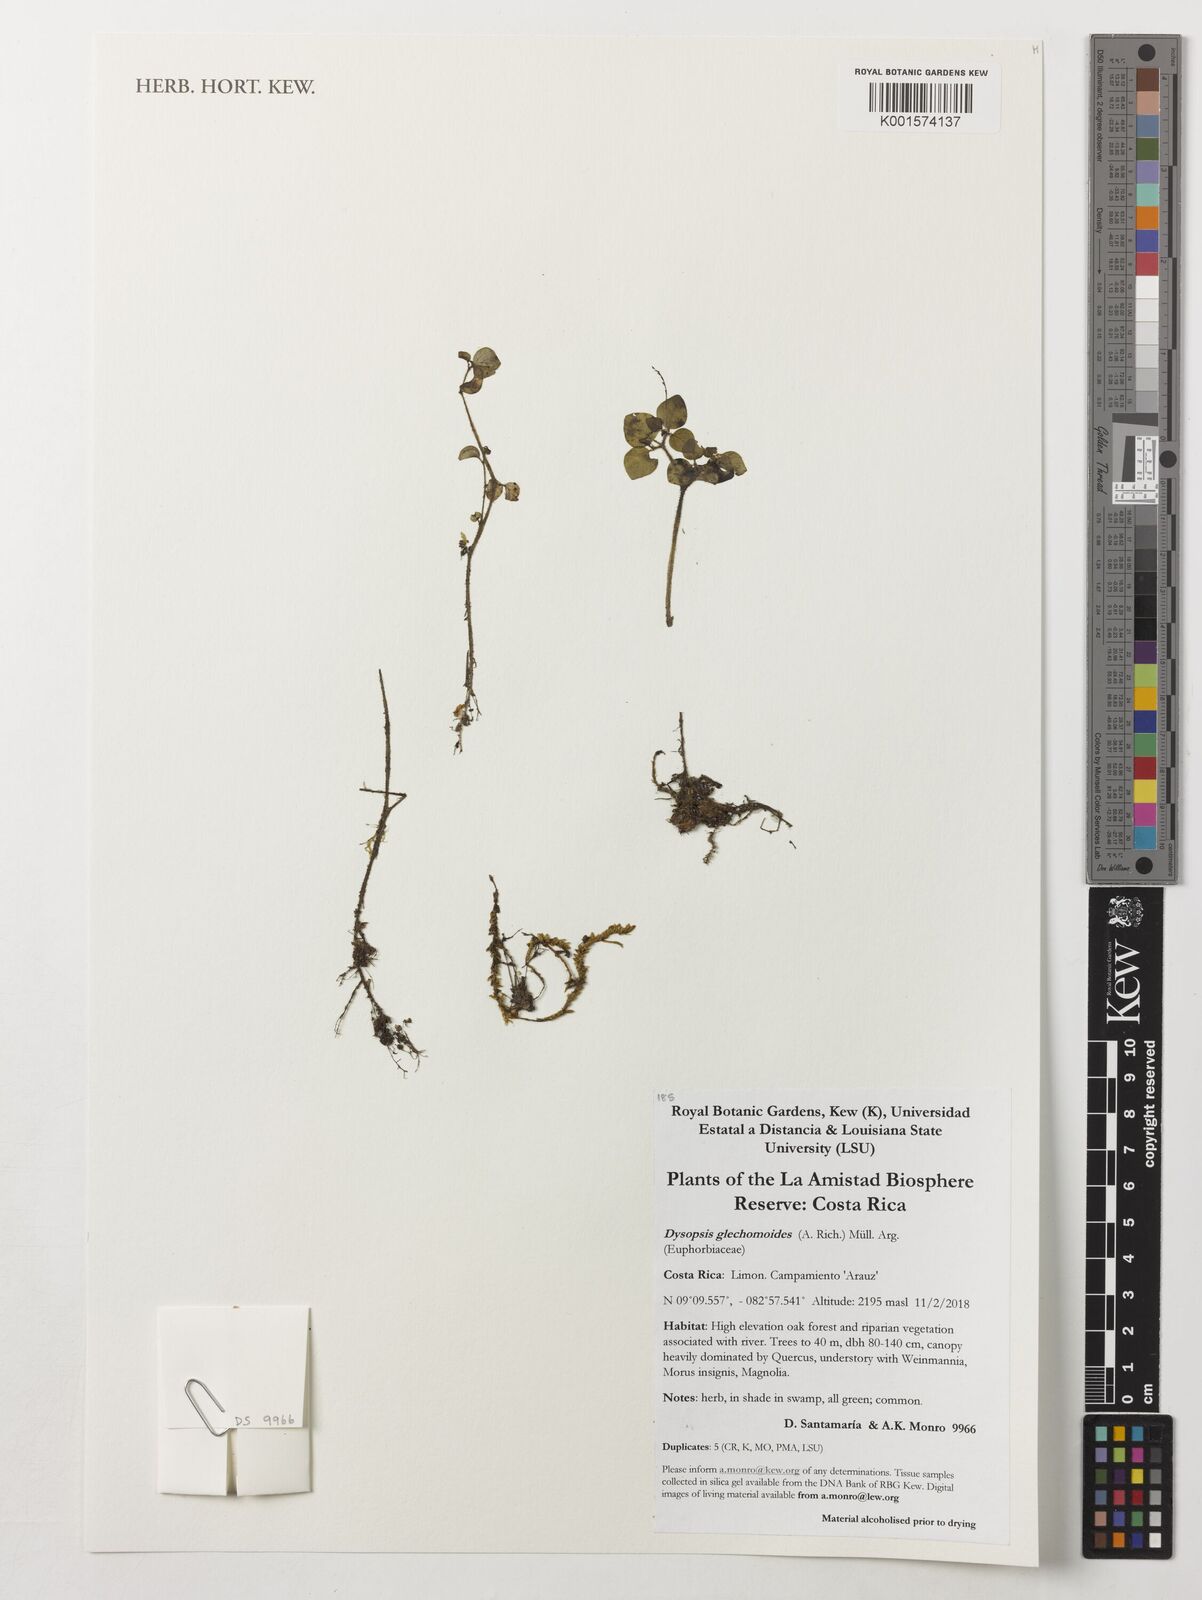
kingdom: Plantae
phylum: Tracheophyta
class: Magnoliopsida
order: Malpighiales
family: Euphorbiaceae
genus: Dysopsis
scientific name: Dysopsis glechomoides
